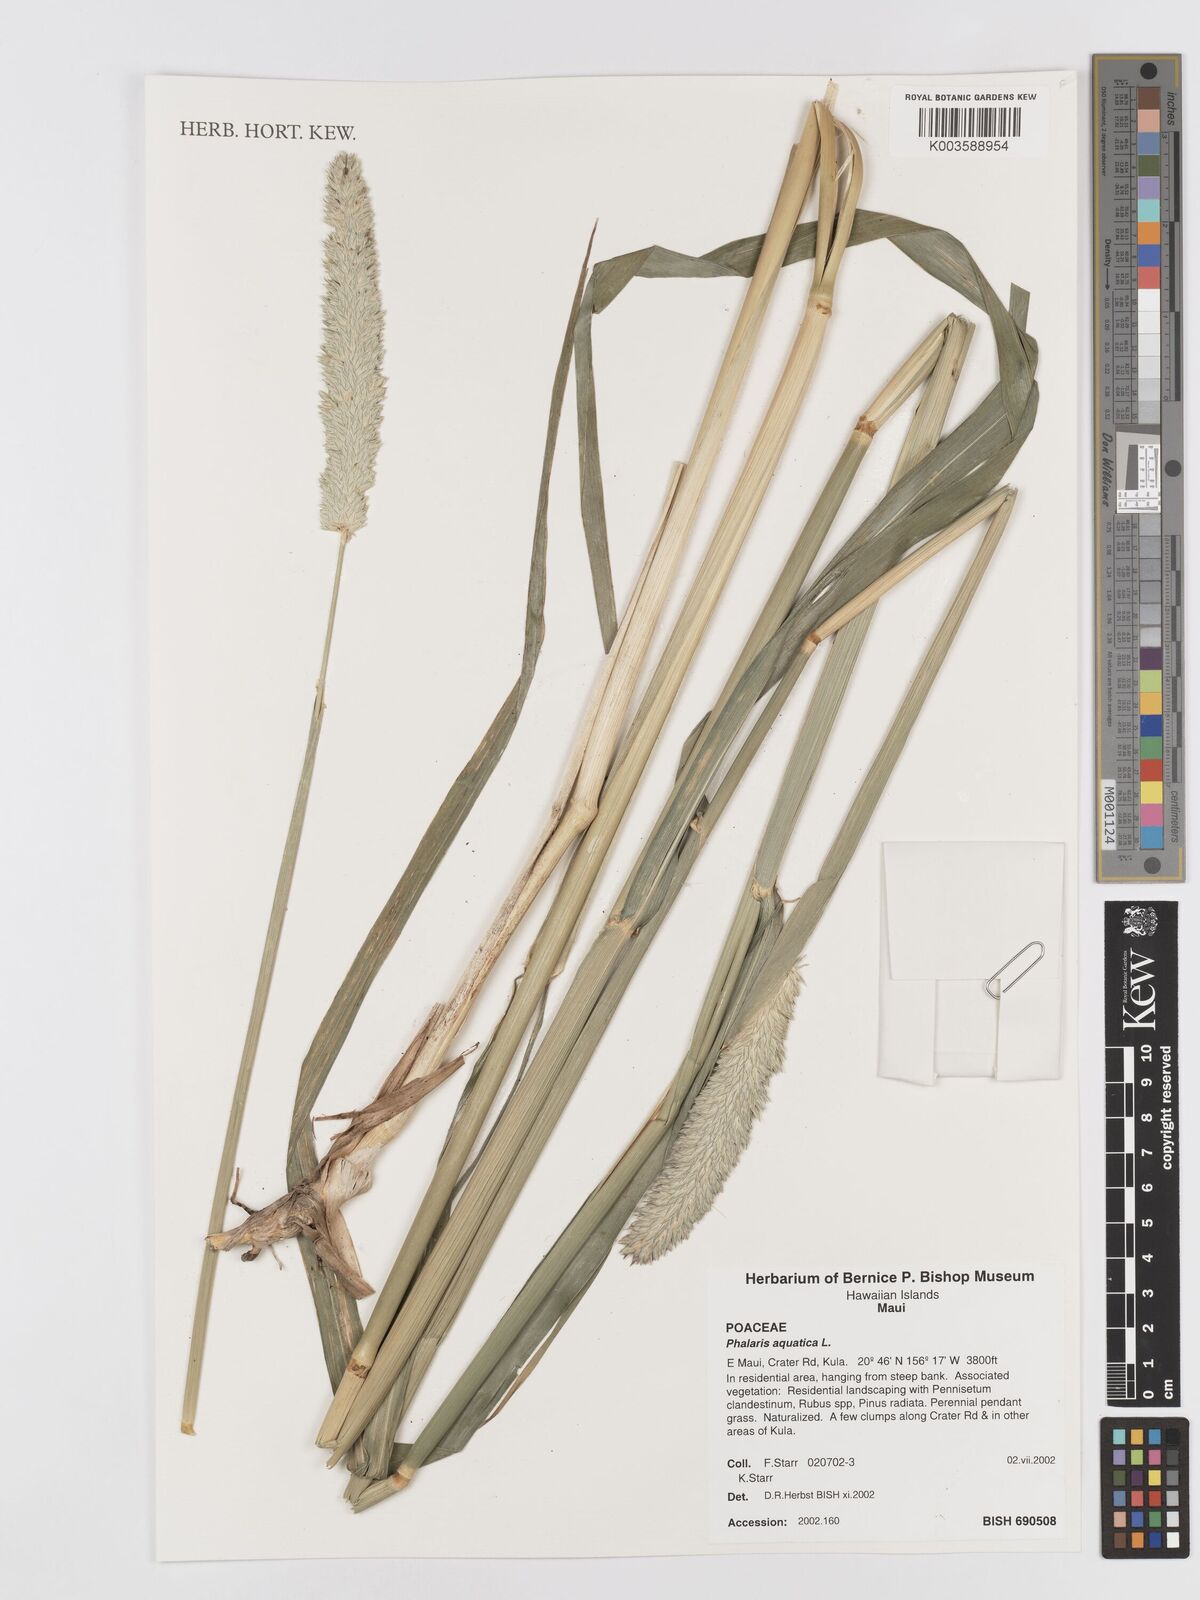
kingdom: Plantae
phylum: Tracheophyta
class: Liliopsida
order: Poales
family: Poaceae
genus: Phalaris
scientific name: Phalaris aquatica
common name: Bulbous canary-grass
